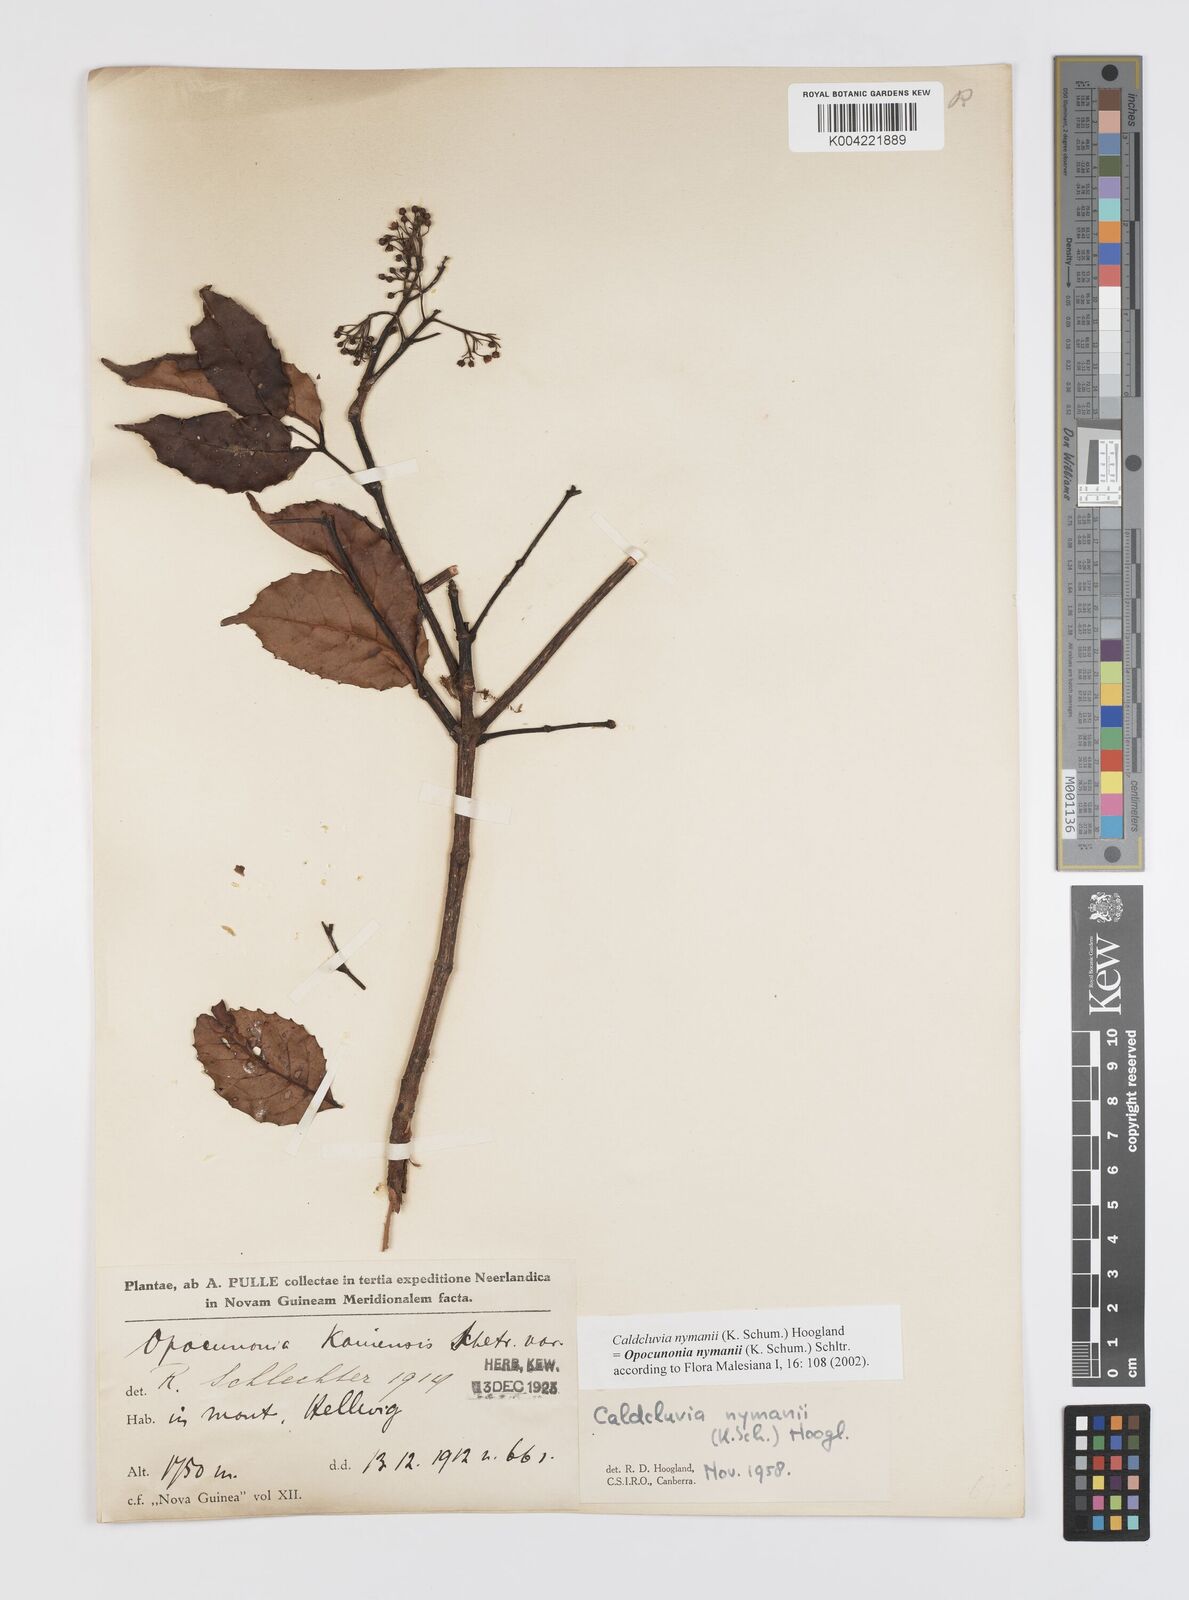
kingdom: Plantae
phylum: Tracheophyta
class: Magnoliopsida
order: Oxalidales
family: Cunoniaceae
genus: Opocunonia
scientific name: Opocunonia nymanii
